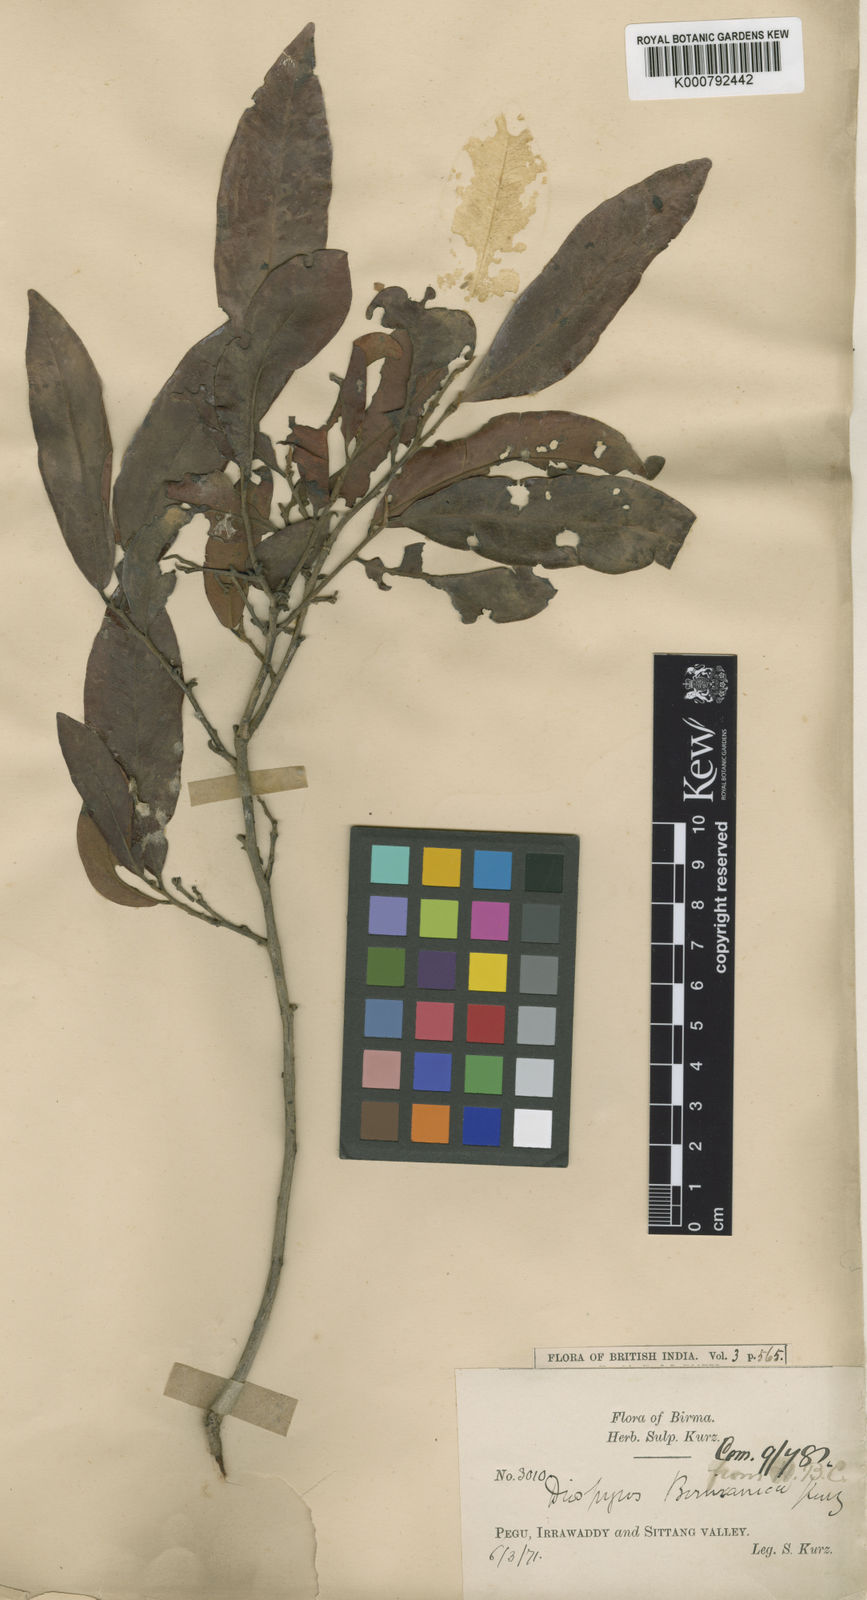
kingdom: Plantae
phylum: Tracheophyta
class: Magnoliopsida
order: Ericales
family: Ebenaceae
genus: Diospyros
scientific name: Diospyros burmanica
